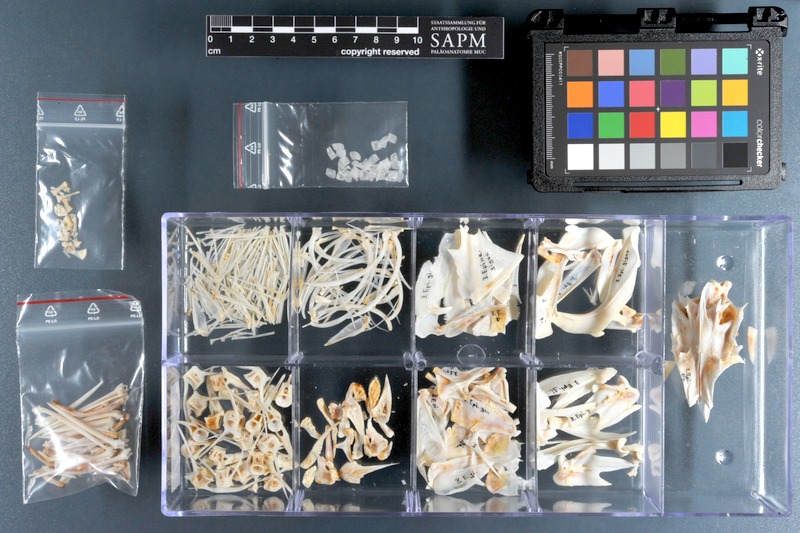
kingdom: Animalia
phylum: Chordata
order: Perciformes
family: Serranidae
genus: Epinephelus
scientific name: Epinephelus marginatus
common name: Dusky grouper
